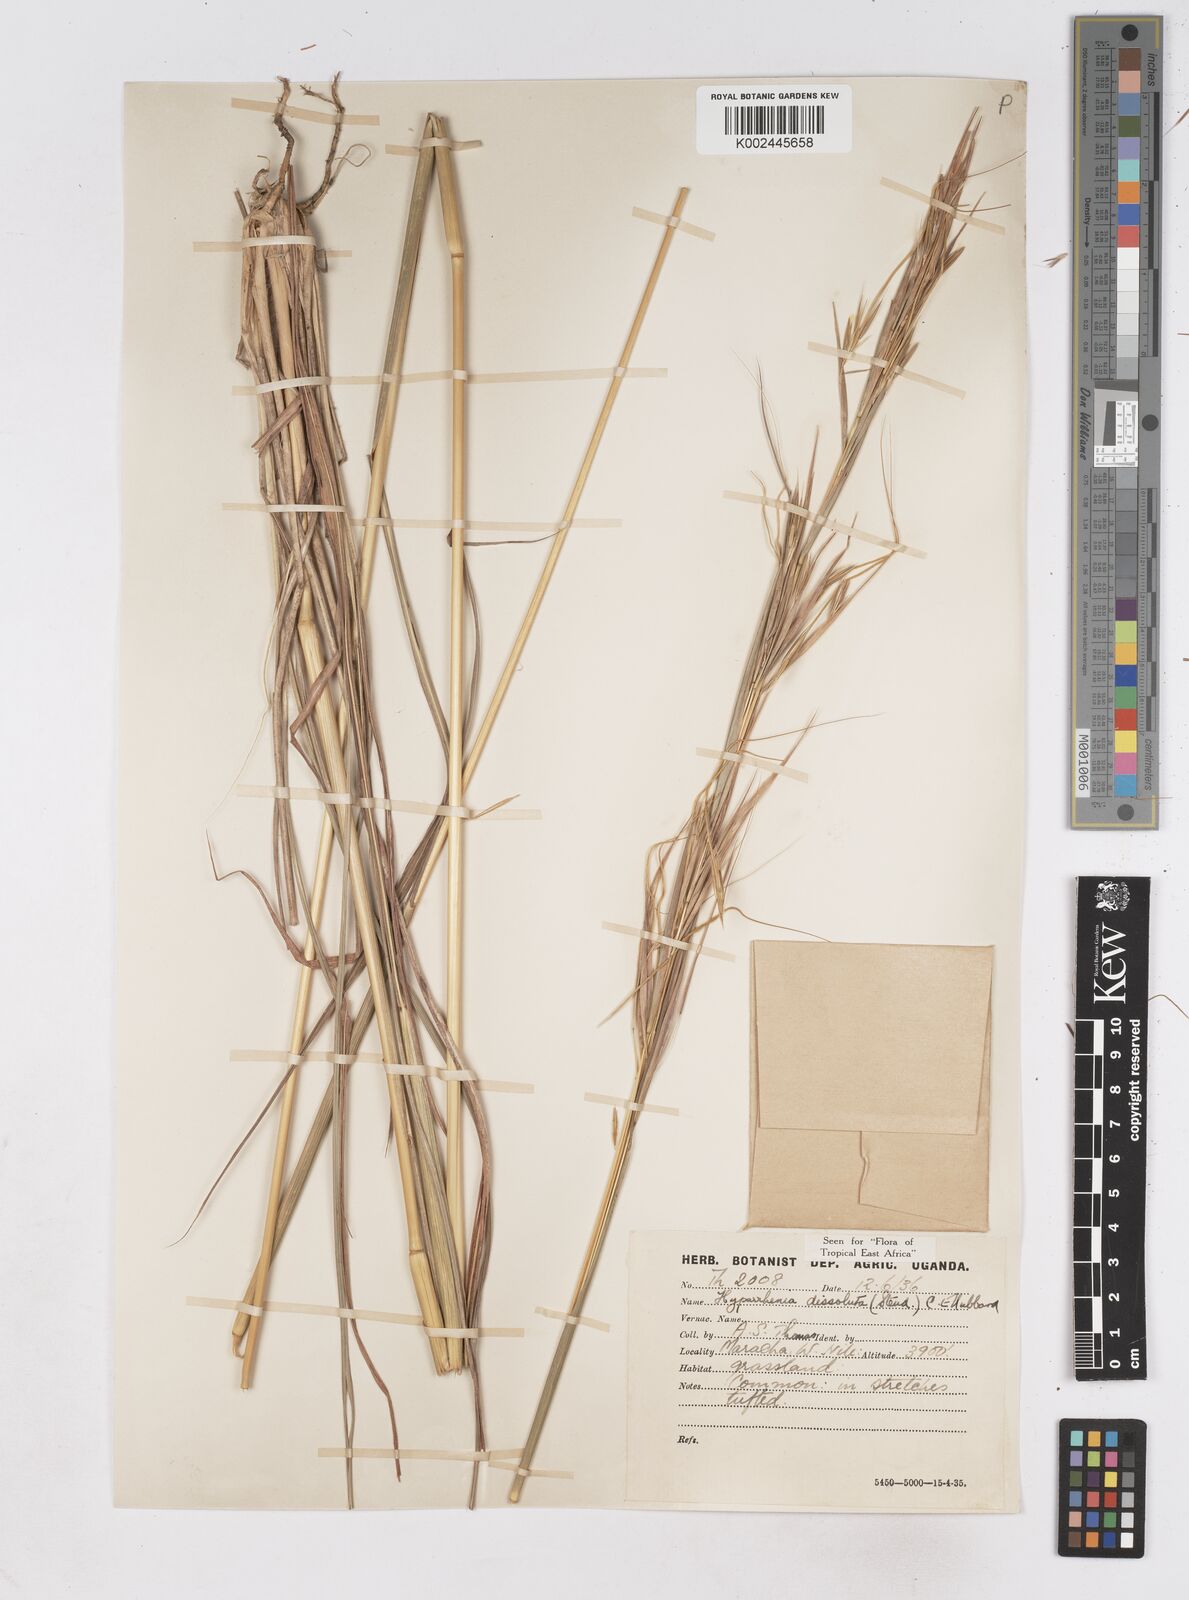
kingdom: Plantae
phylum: Tracheophyta
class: Liliopsida
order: Poales
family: Poaceae
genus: Hyperthelia
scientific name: Hyperthelia dissoluta
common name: Yellow thatching grass
